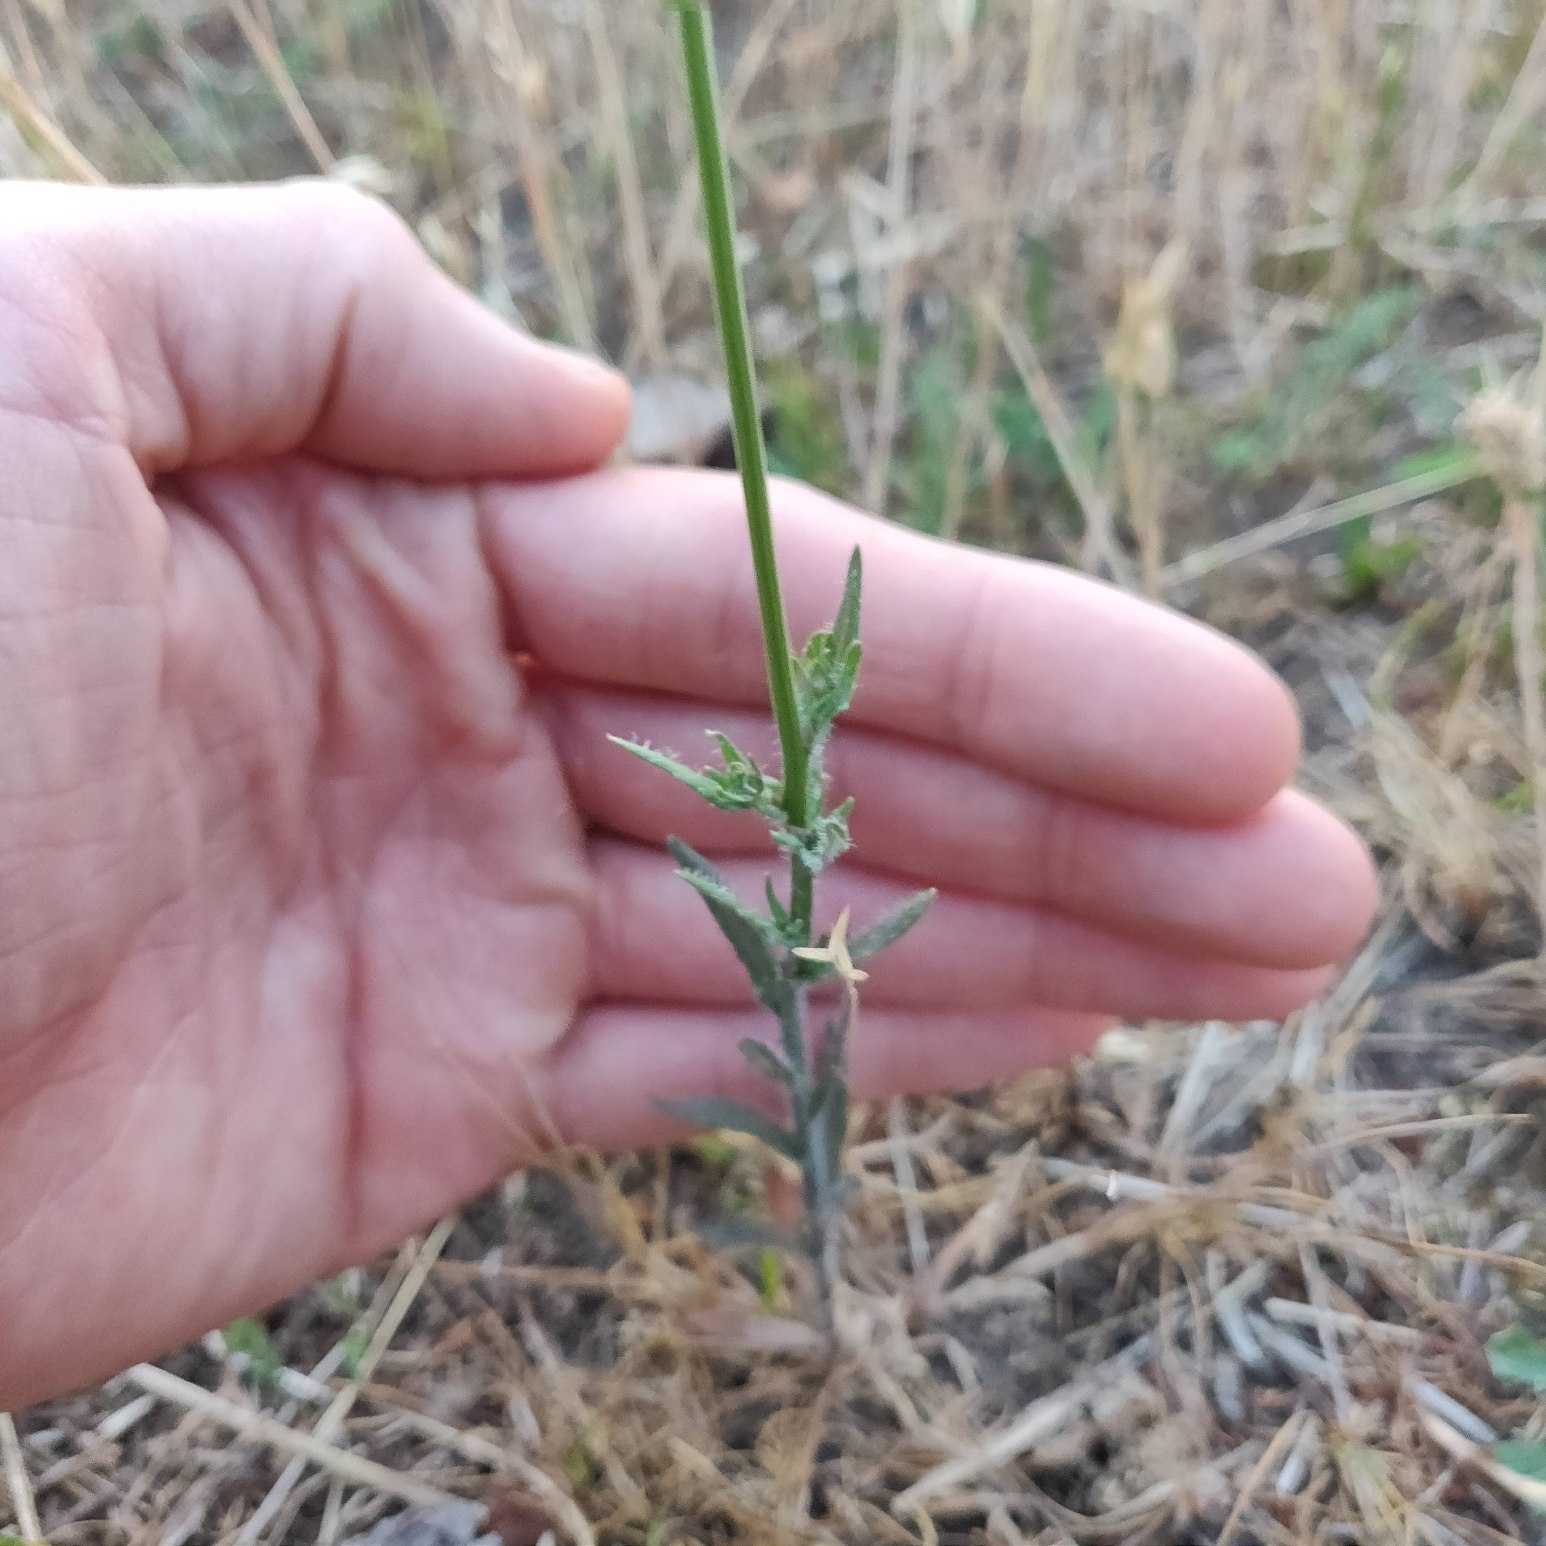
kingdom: Plantae
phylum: Tracheophyta
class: Magnoliopsida
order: Asterales
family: Campanulaceae
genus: Jasione
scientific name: Jasione montana
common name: Blåmunke
